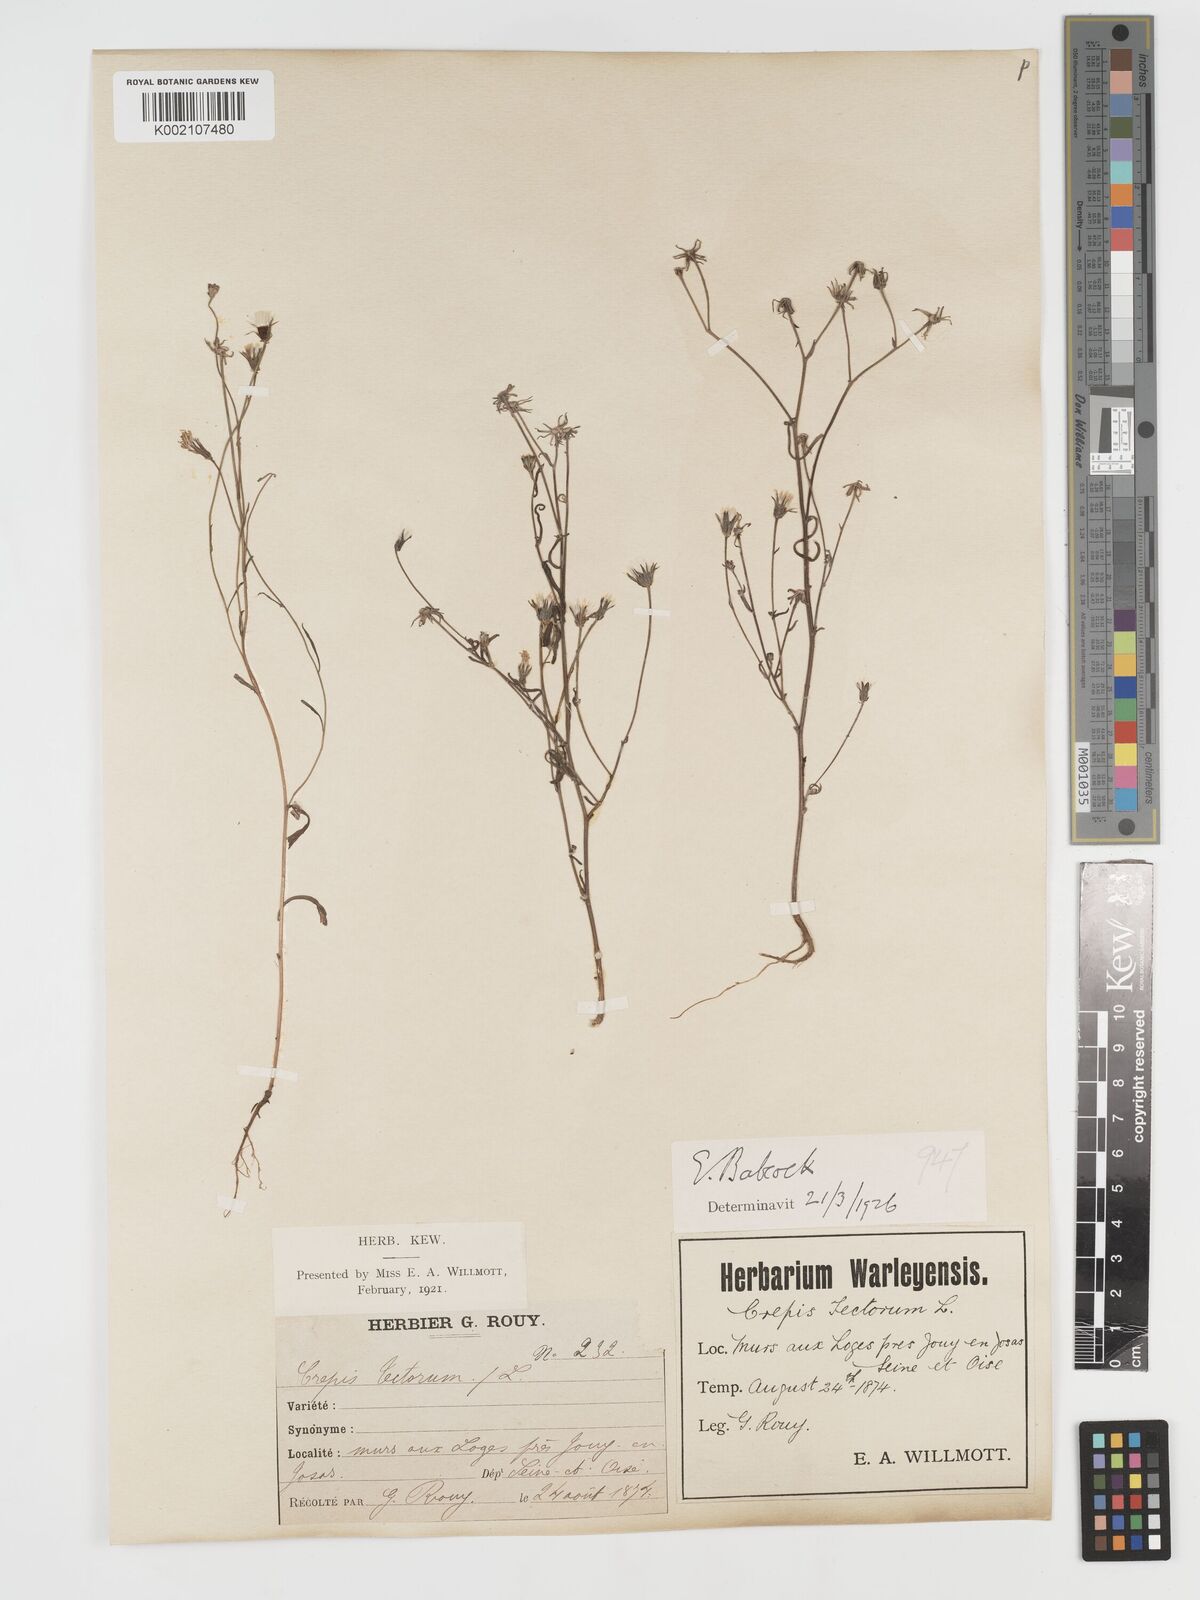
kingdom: Plantae
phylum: Tracheophyta
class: Magnoliopsida
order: Asterales
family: Asteraceae
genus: Crepis
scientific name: Crepis tectorum
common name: Narrow-leaved hawk's-beard
